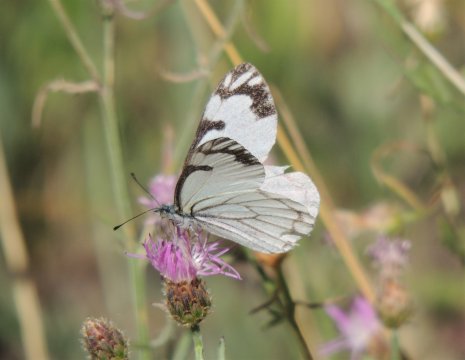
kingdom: Animalia
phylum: Arthropoda
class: Insecta
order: Lepidoptera
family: Pieridae
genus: Neophasia
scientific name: Neophasia menapia
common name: Pine White
